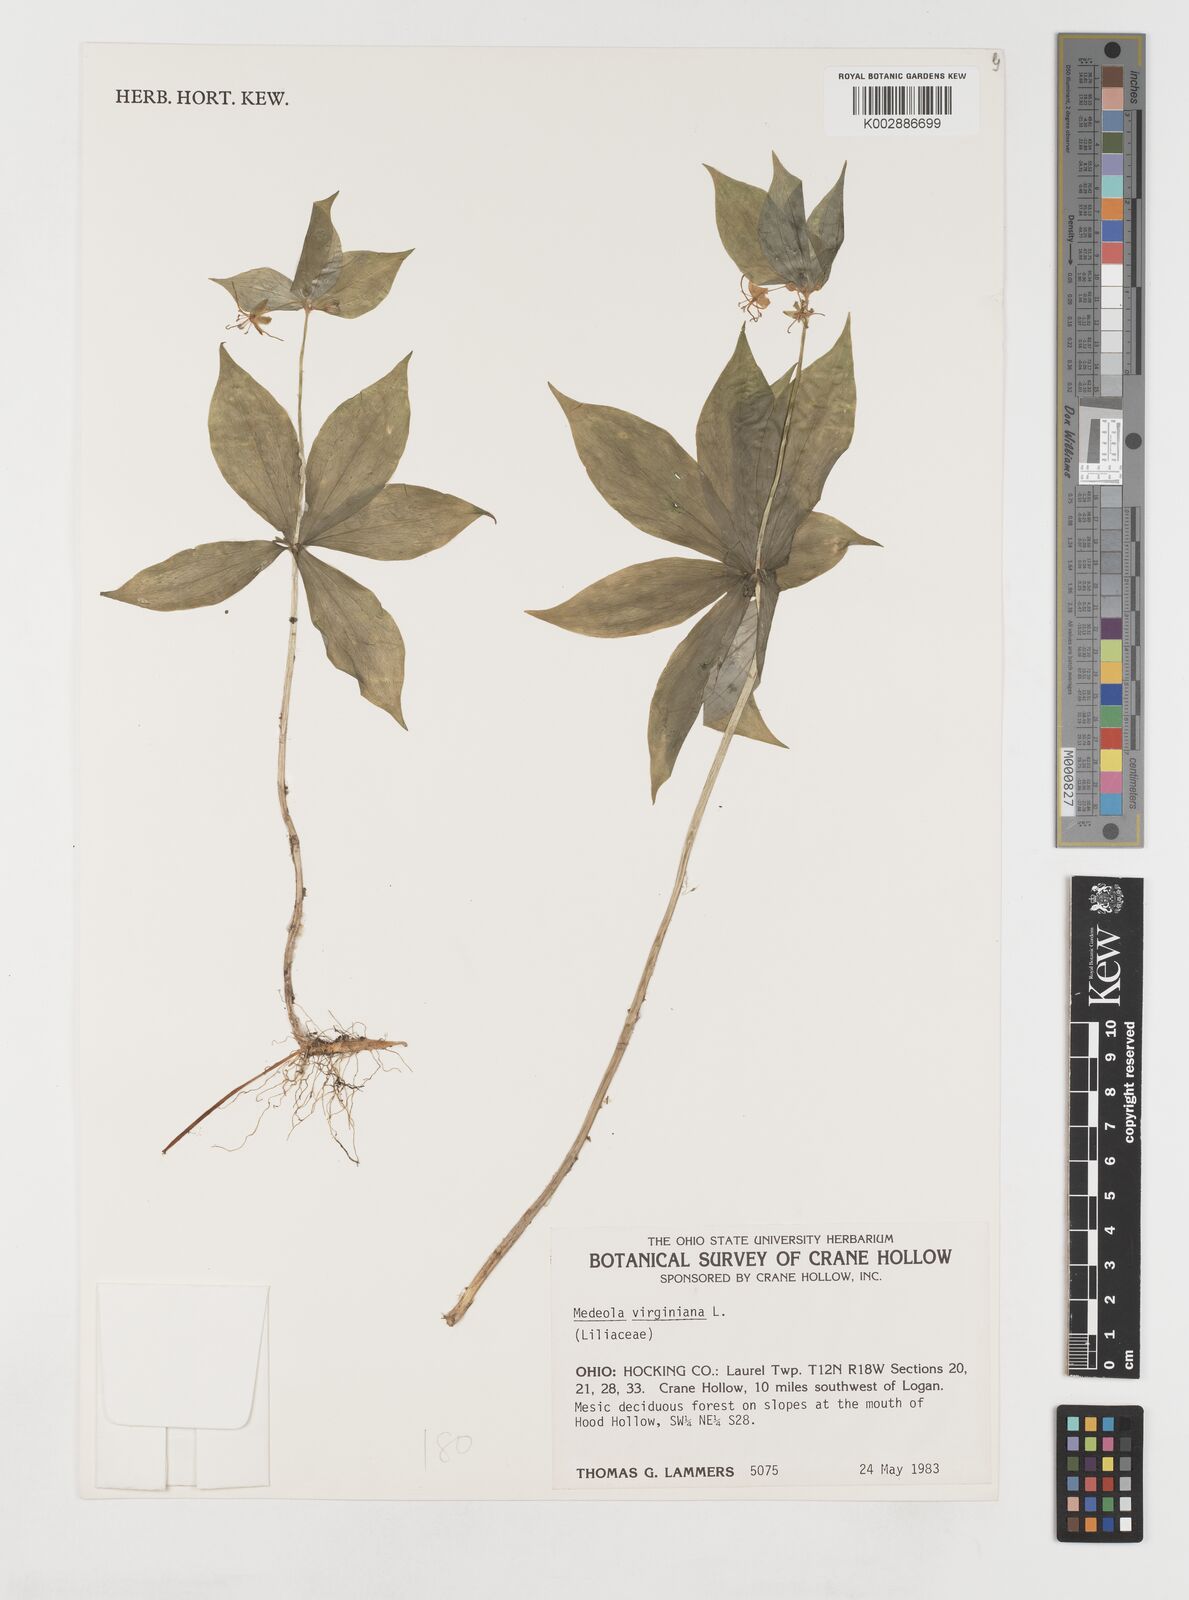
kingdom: Plantae
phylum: Tracheophyta
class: Liliopsida
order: Liliales
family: Liliaceae
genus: Medeola
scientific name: Medeola virginiana
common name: Indian cucumber-root
